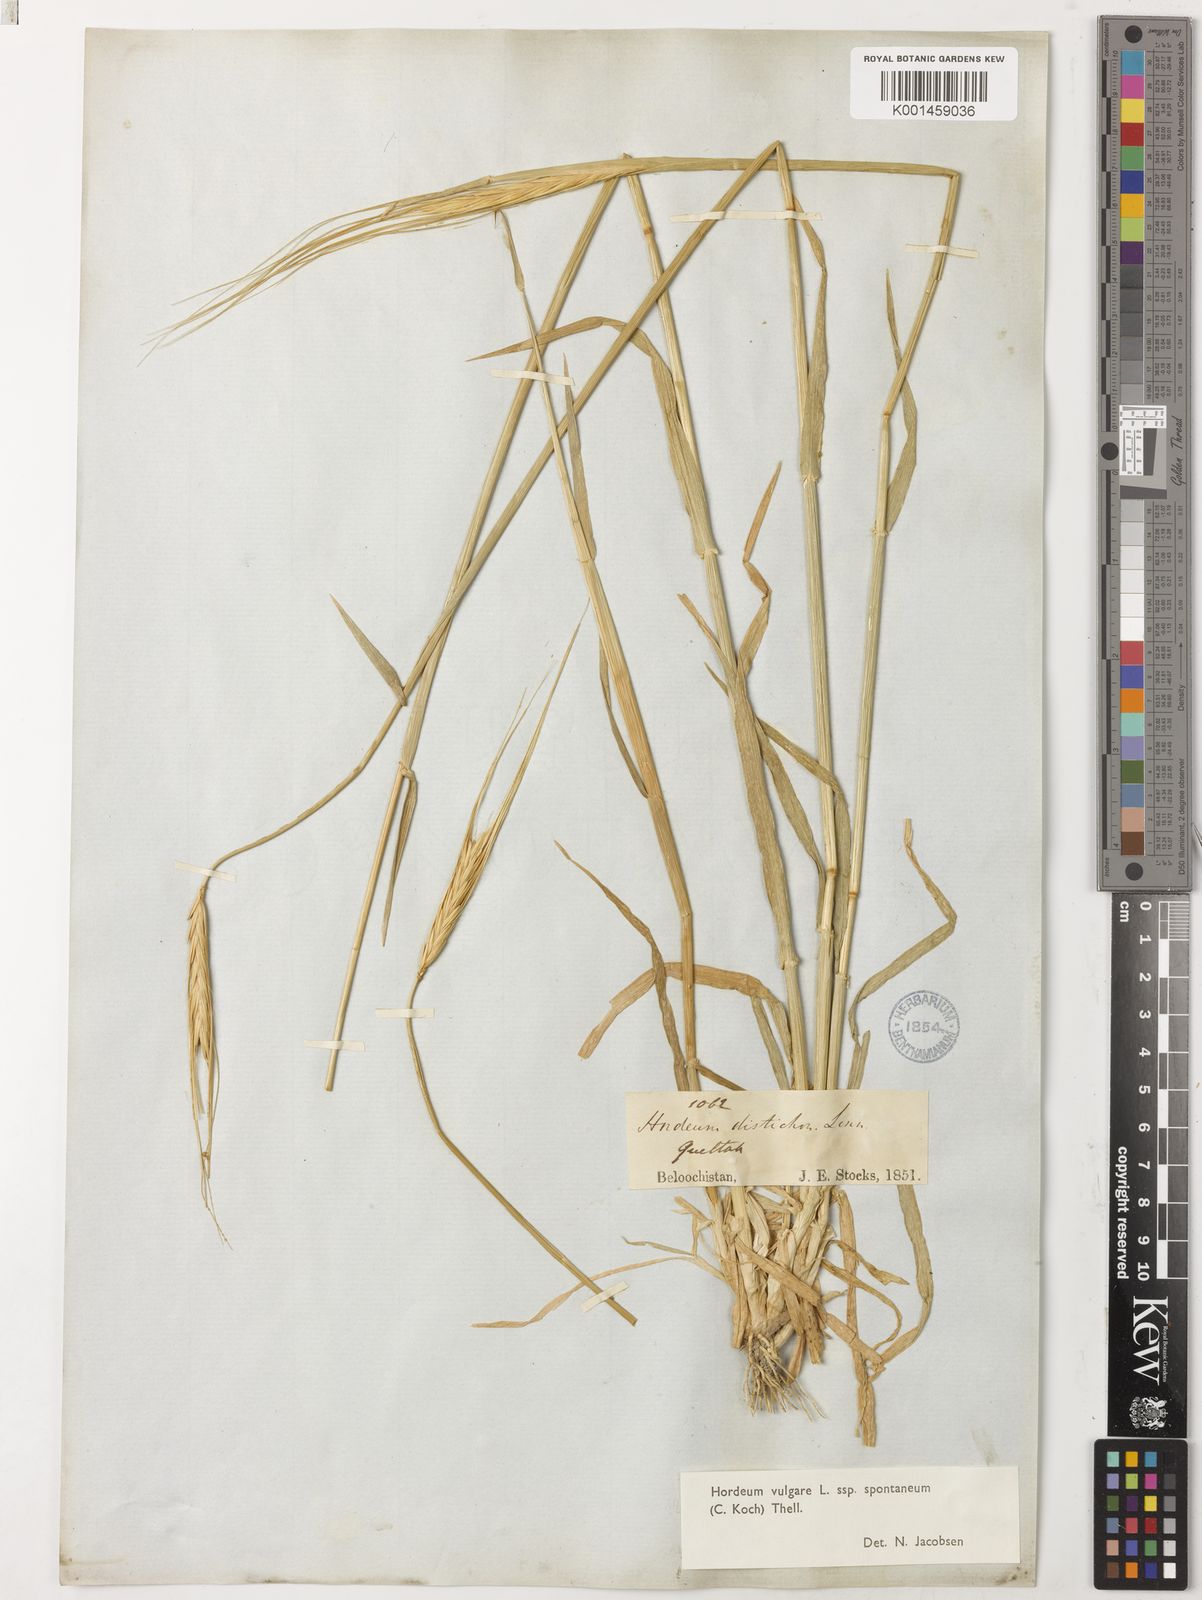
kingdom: Plantae
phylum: Tracheophyta
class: Liliopsida
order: Poales
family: Poaceae
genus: Hordeum
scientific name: Hordeum spontaneum
